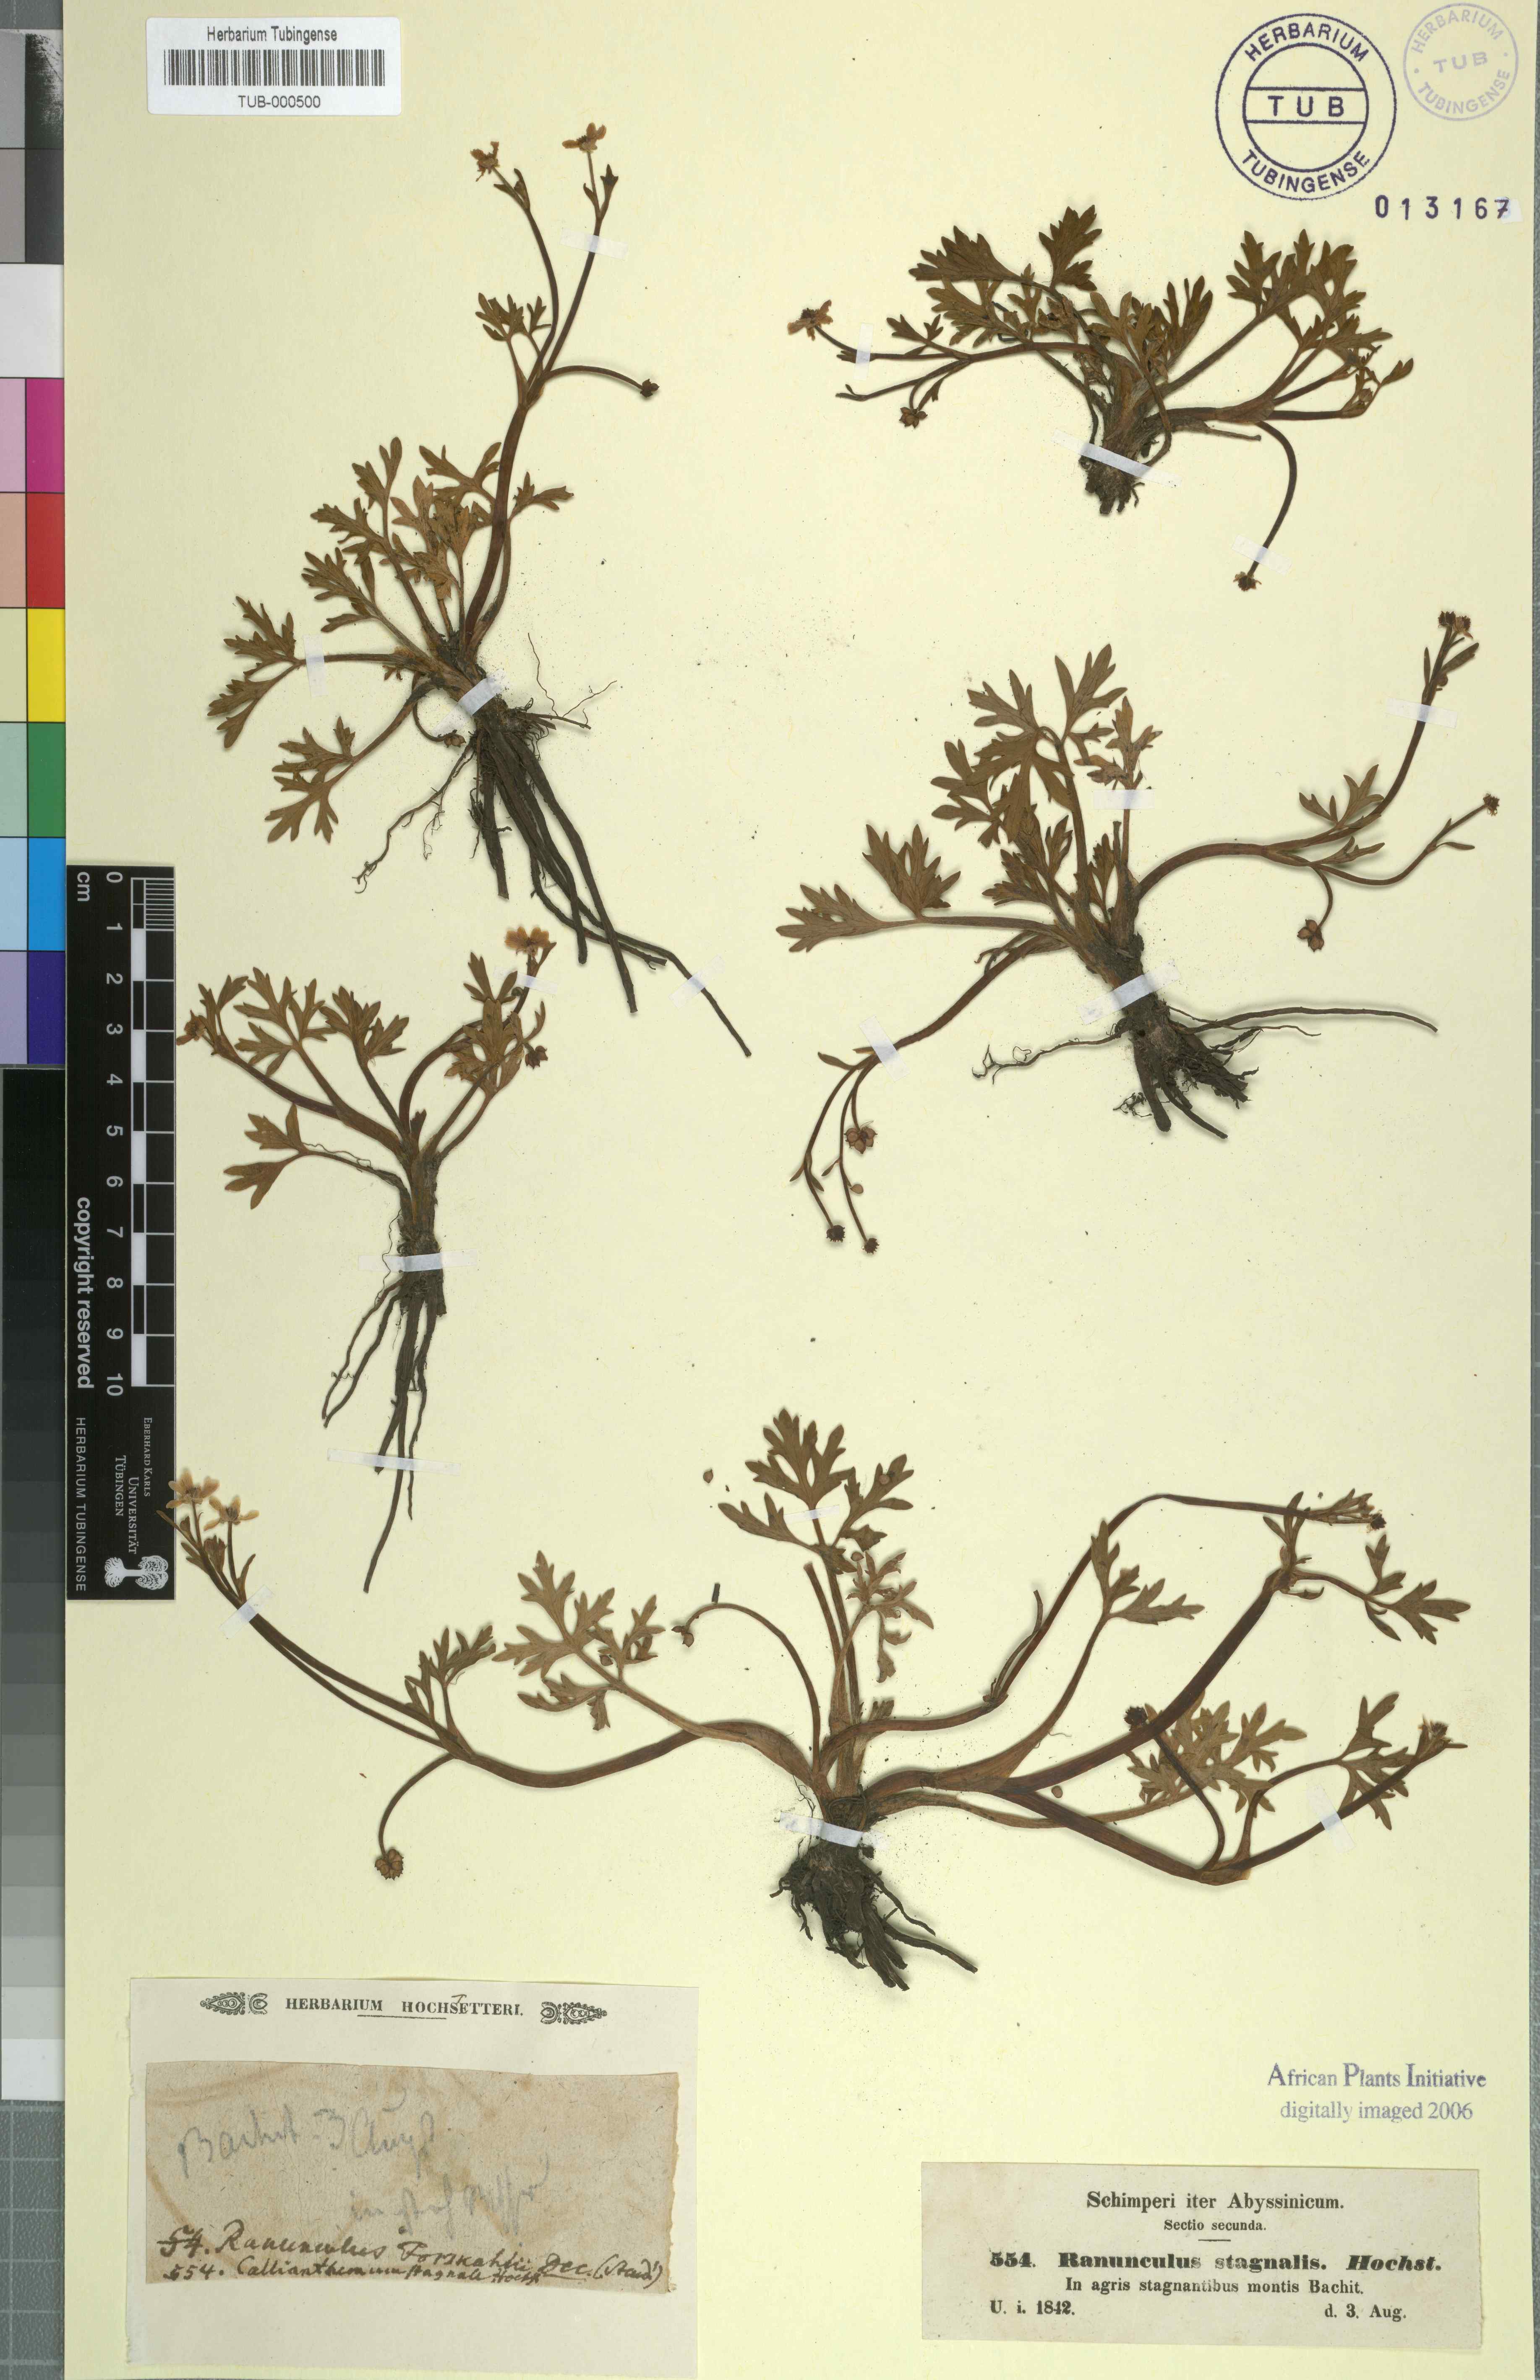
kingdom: Plantae
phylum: Tracheophyta
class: Magnoliopsida
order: Ranunculales
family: Ranunculaceae
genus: Ranunculus
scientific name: Ranunculus simensis
